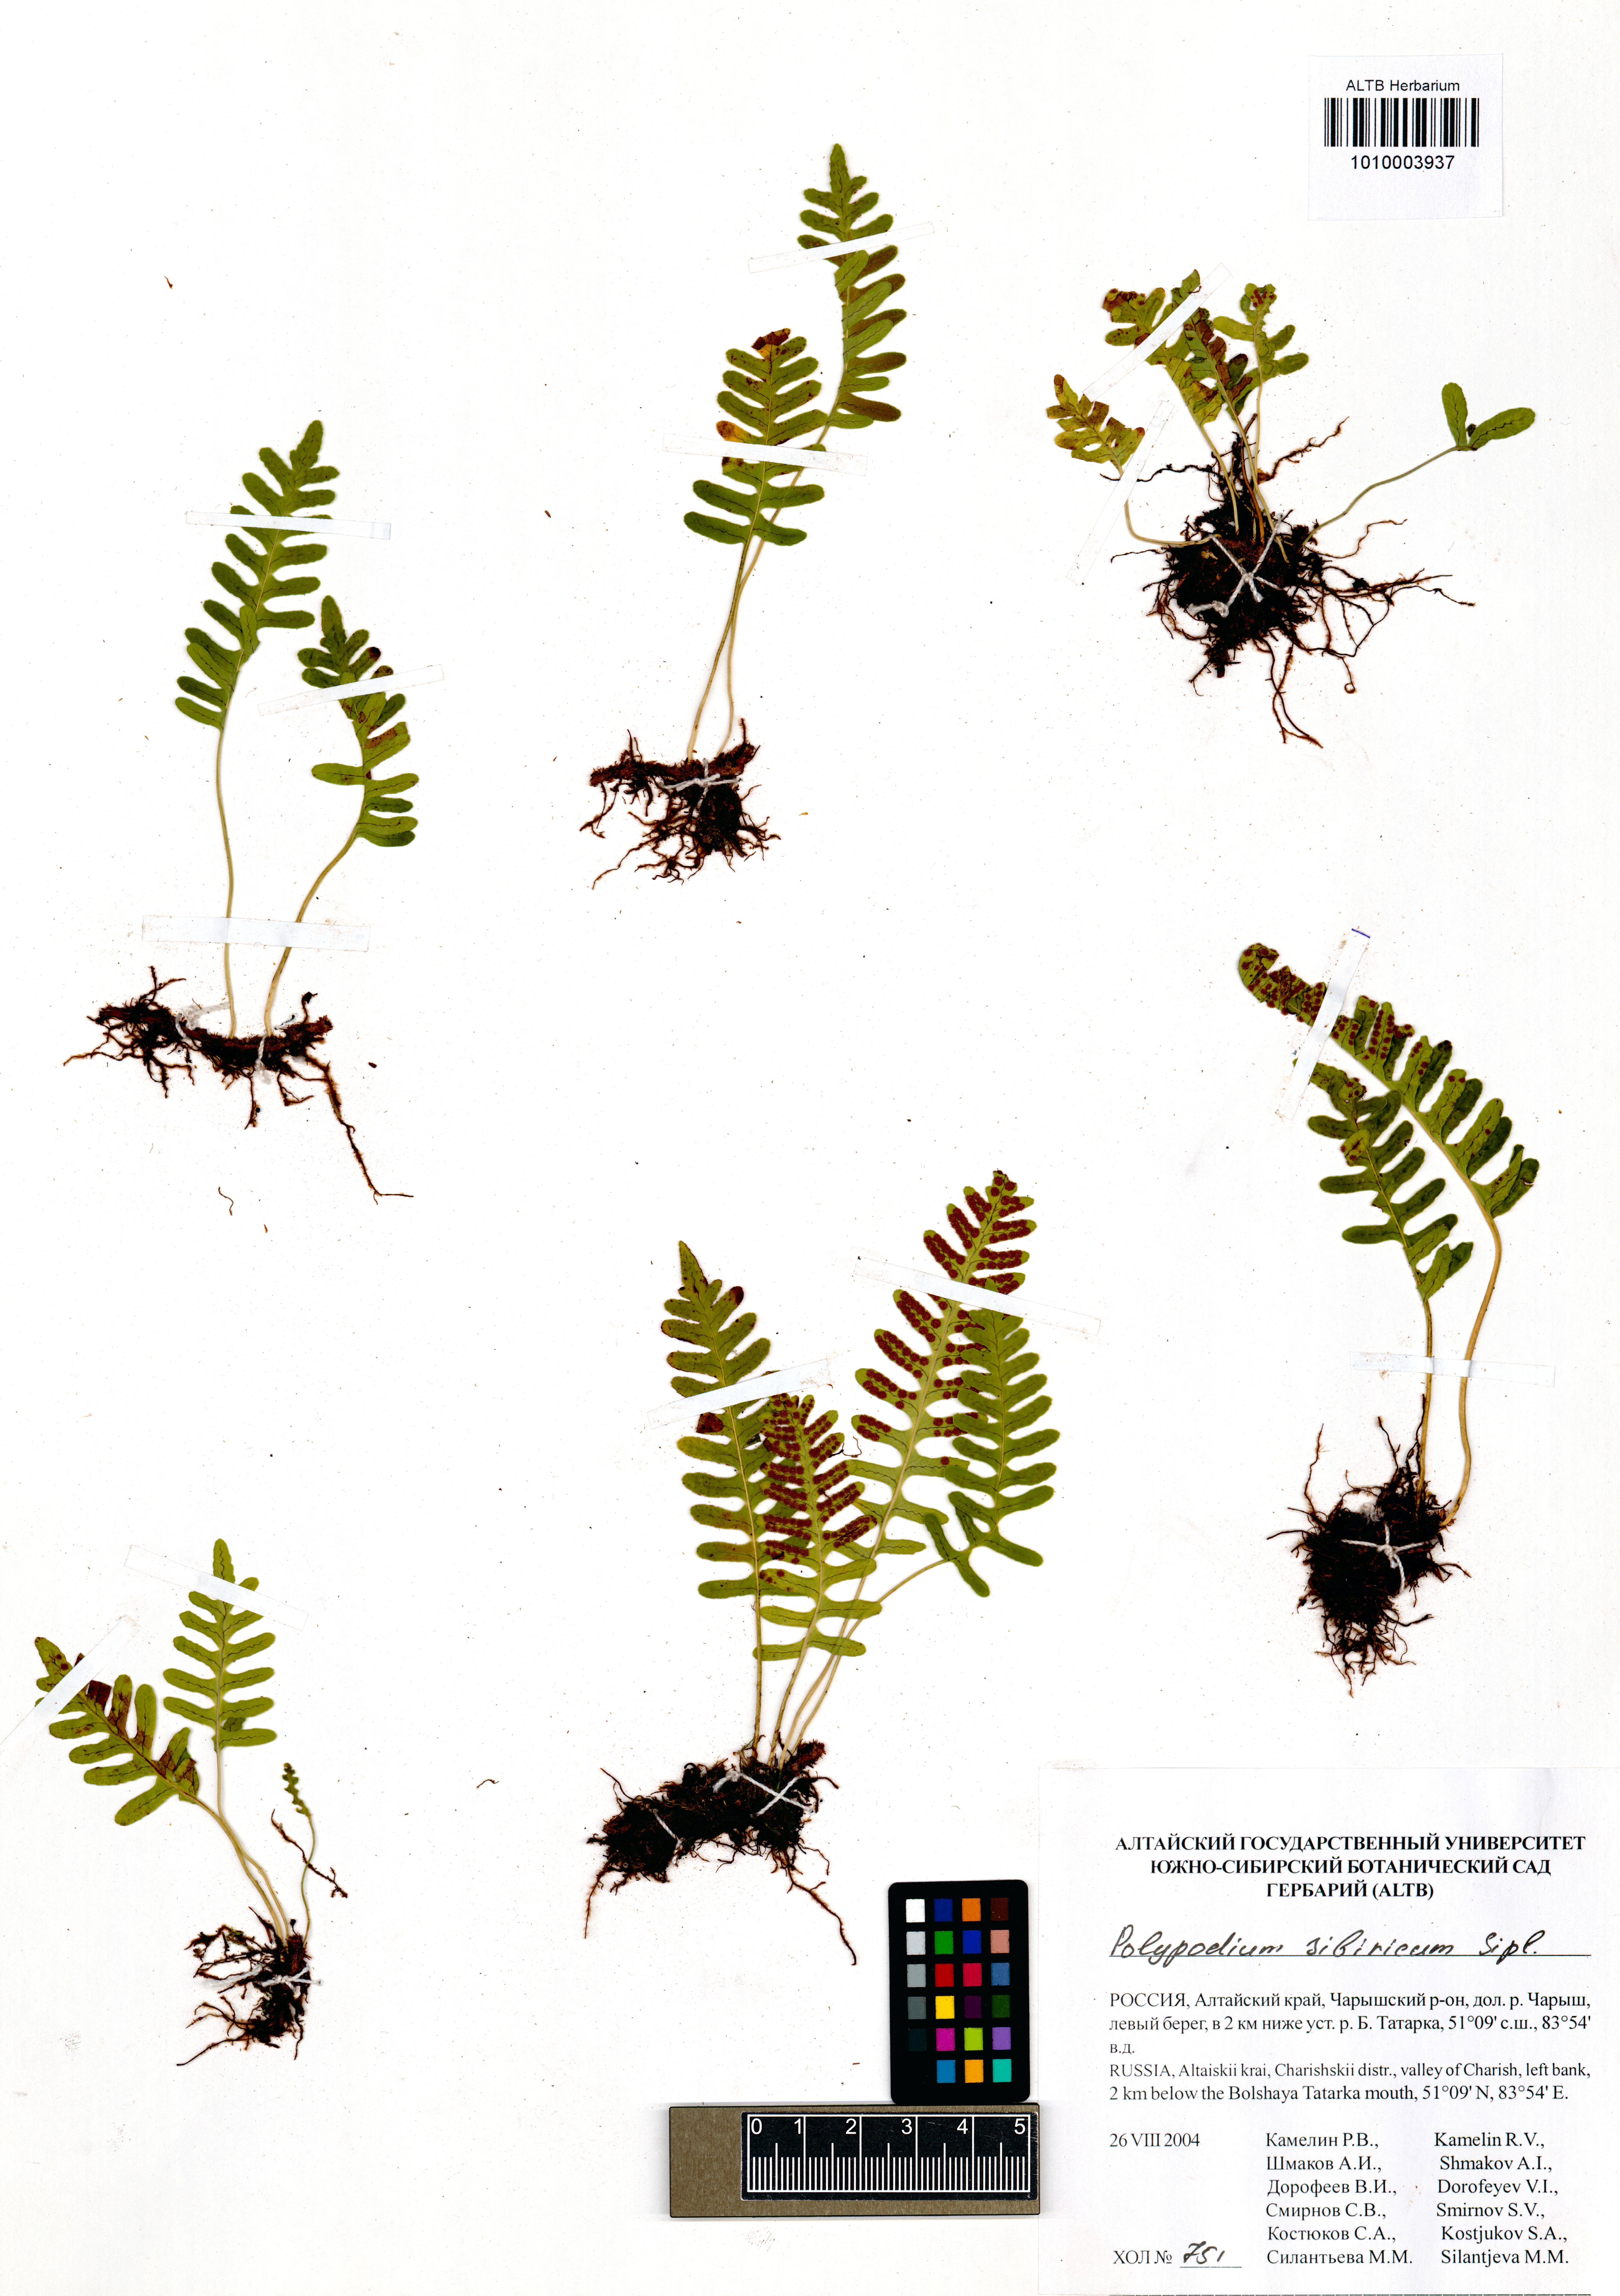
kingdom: Plantae
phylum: Tracheophyta
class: Polypodiopsida
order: Polypodiales
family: Polypodiaceae
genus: Polypodium
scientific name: Polypodium sibiricum
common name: Siberian polypody
